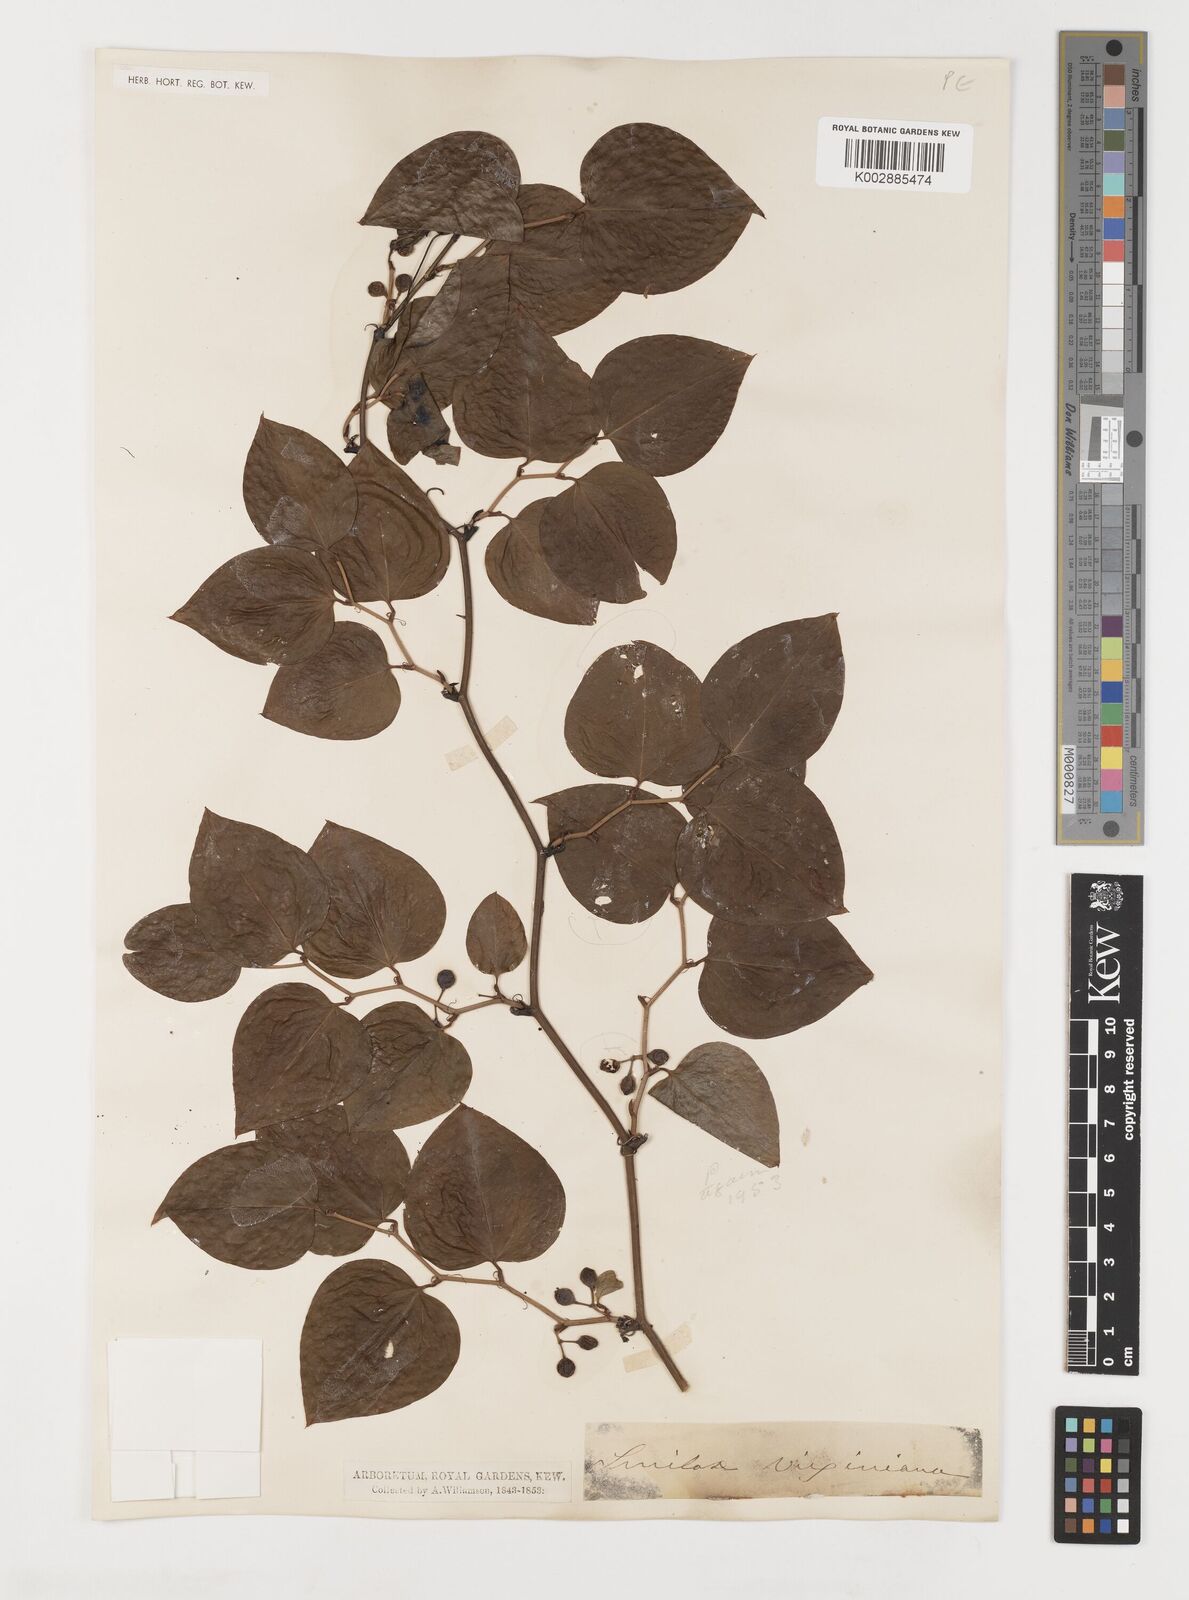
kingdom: Plantae
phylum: Tracheophyta
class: Liliopsida
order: Liliales
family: Smilacaceae
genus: Smilax
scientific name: Smilax laurifolia
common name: Bamboovine
